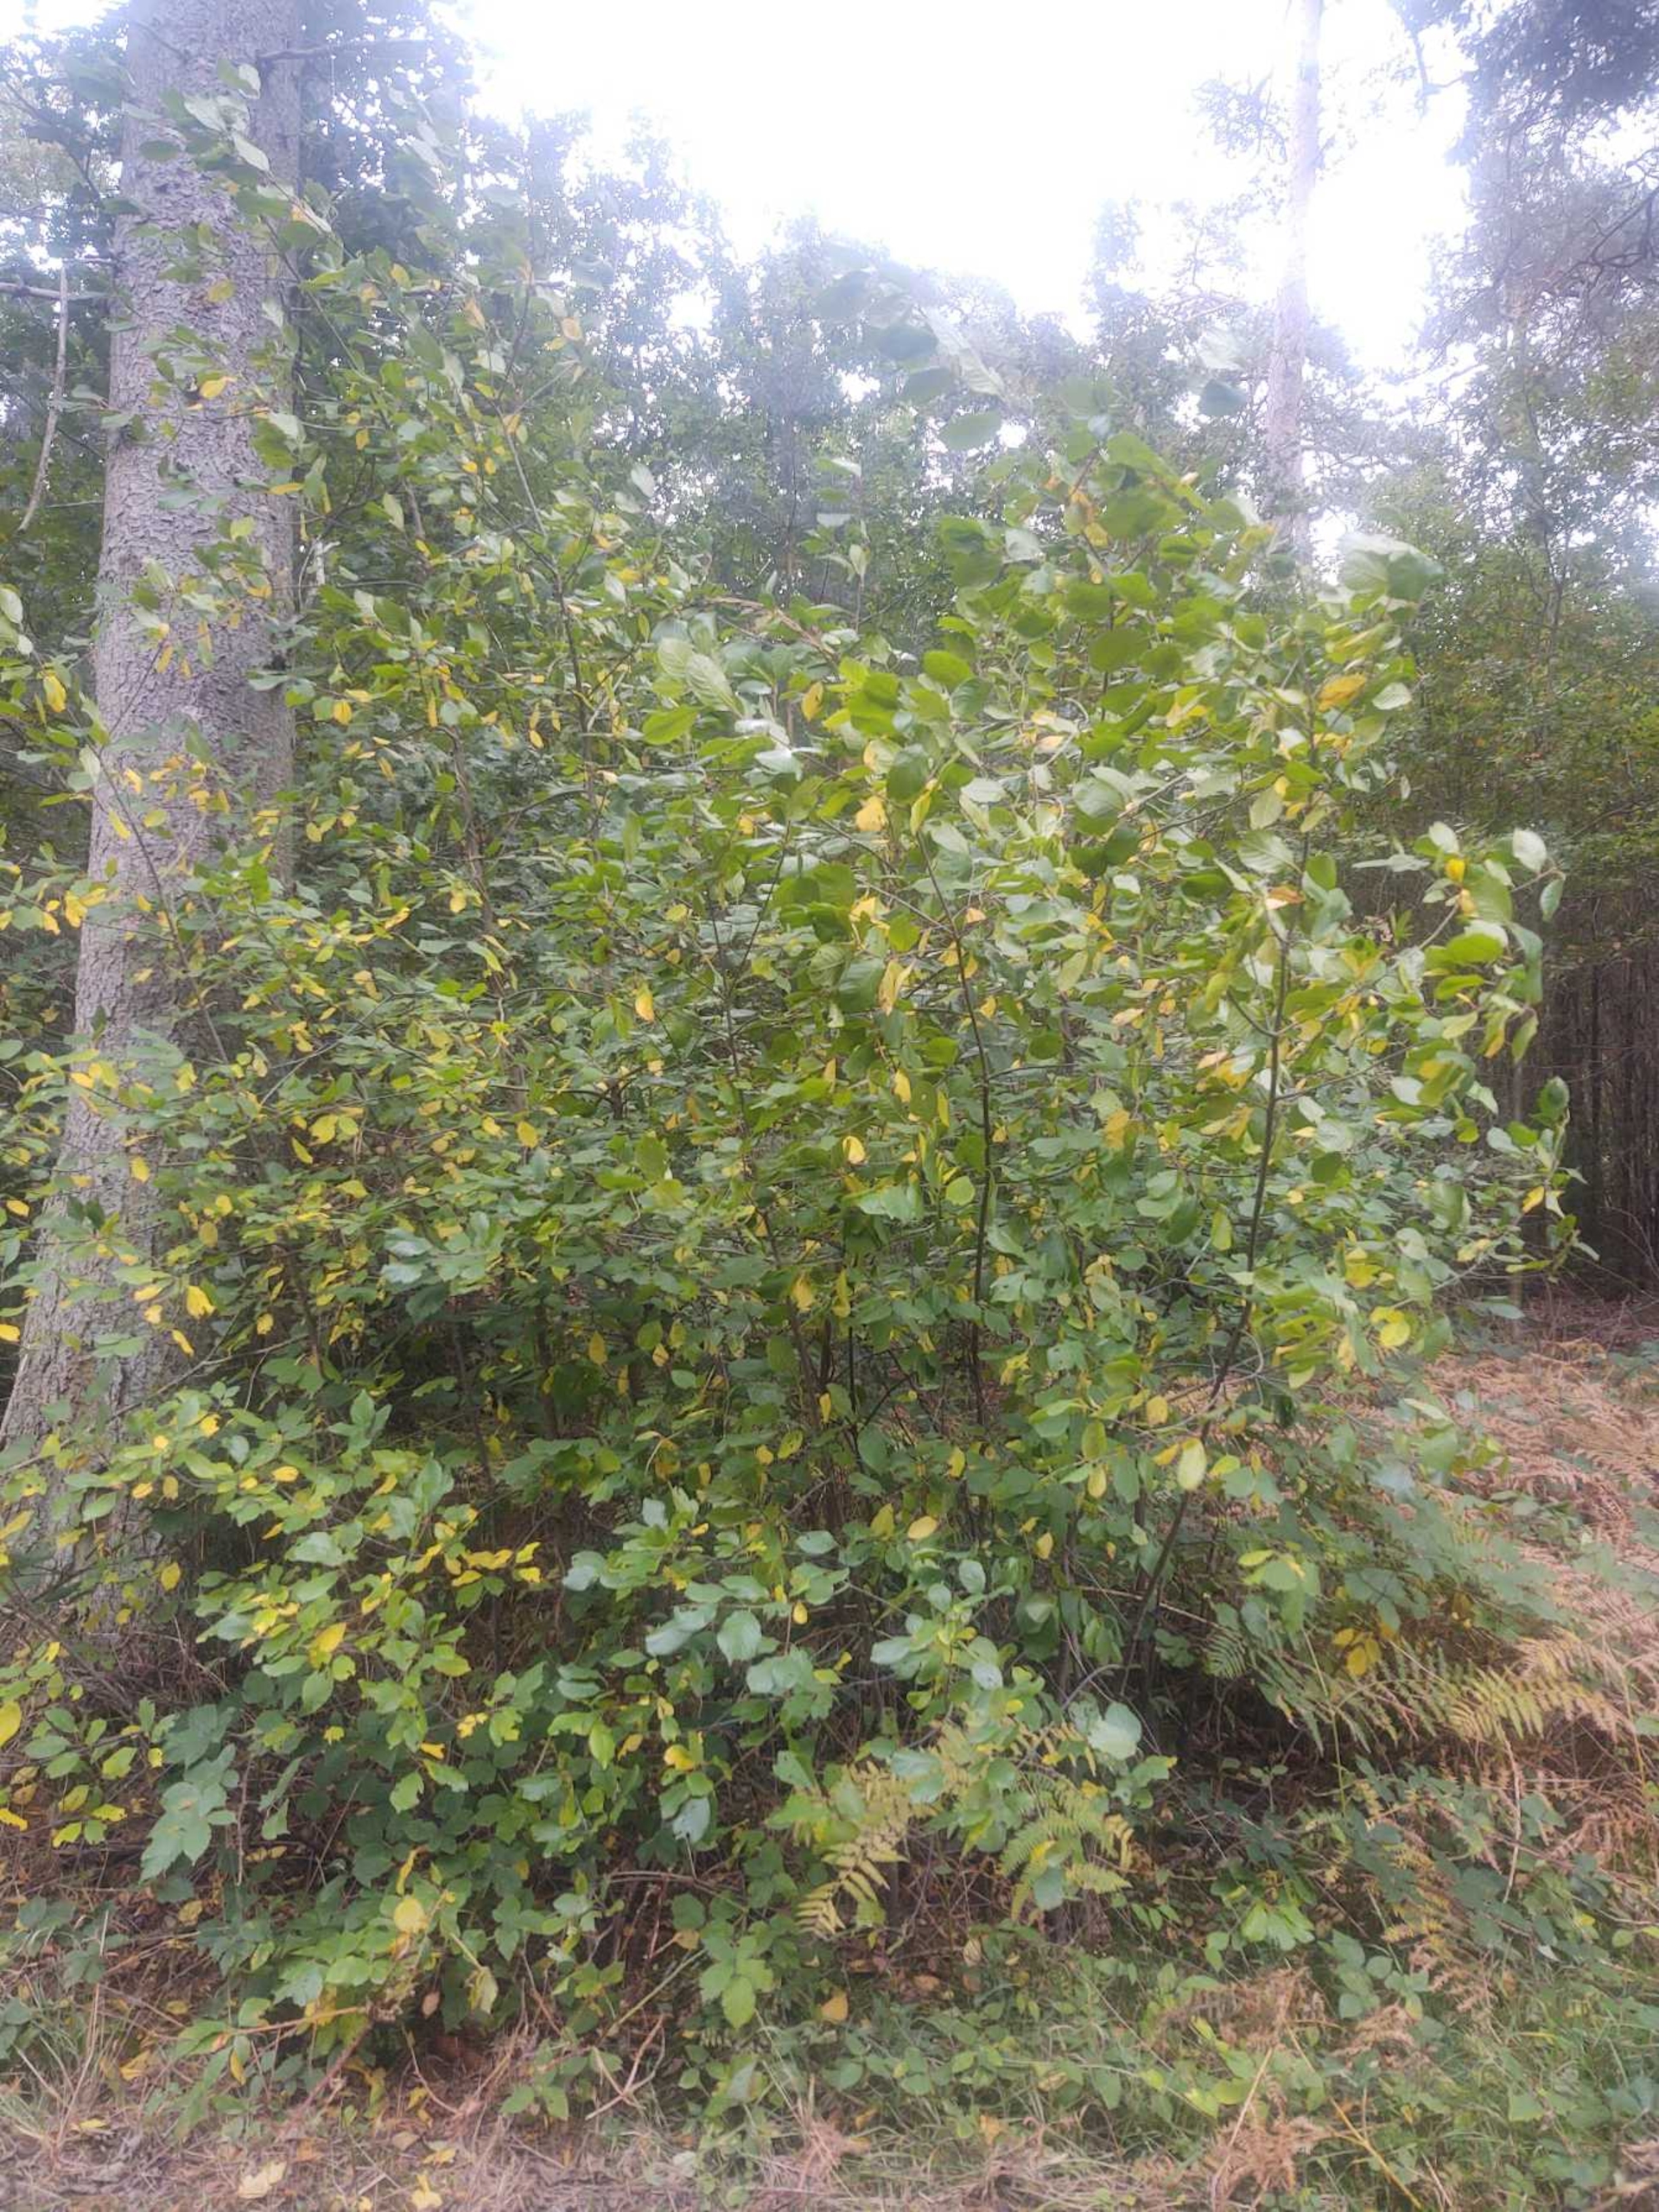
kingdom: Plantae
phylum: Tracheophyta
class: Magnoliopsida
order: Rosales
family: Rhamnaceae
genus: Frangula
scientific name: Frangula alnus
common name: Tørst
